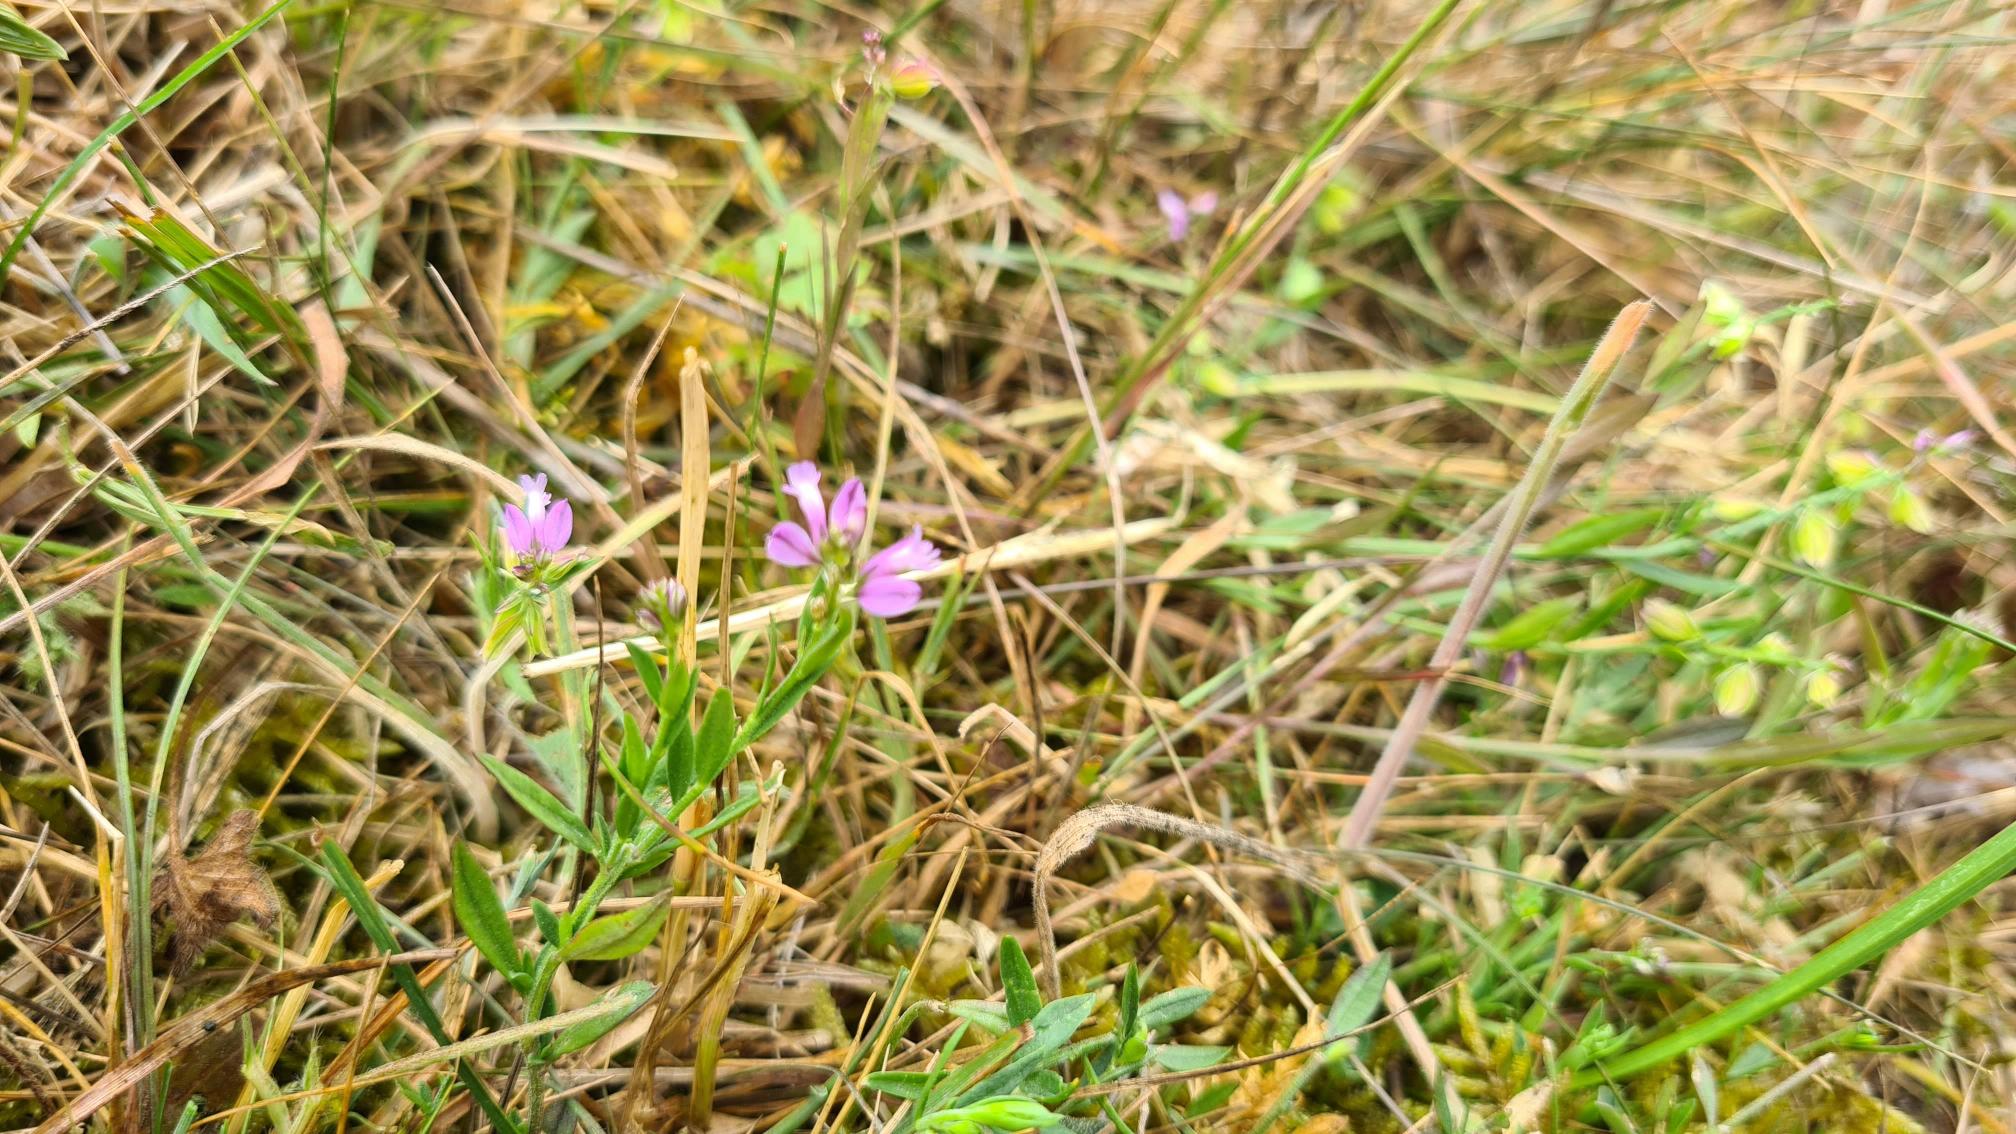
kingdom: Plantae
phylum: Tracheophyta
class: Magnoliopsida
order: Fabales
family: Polygalaceae
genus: Polygala
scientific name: Polygala vulgaris
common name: Almindelig mælkeurt
